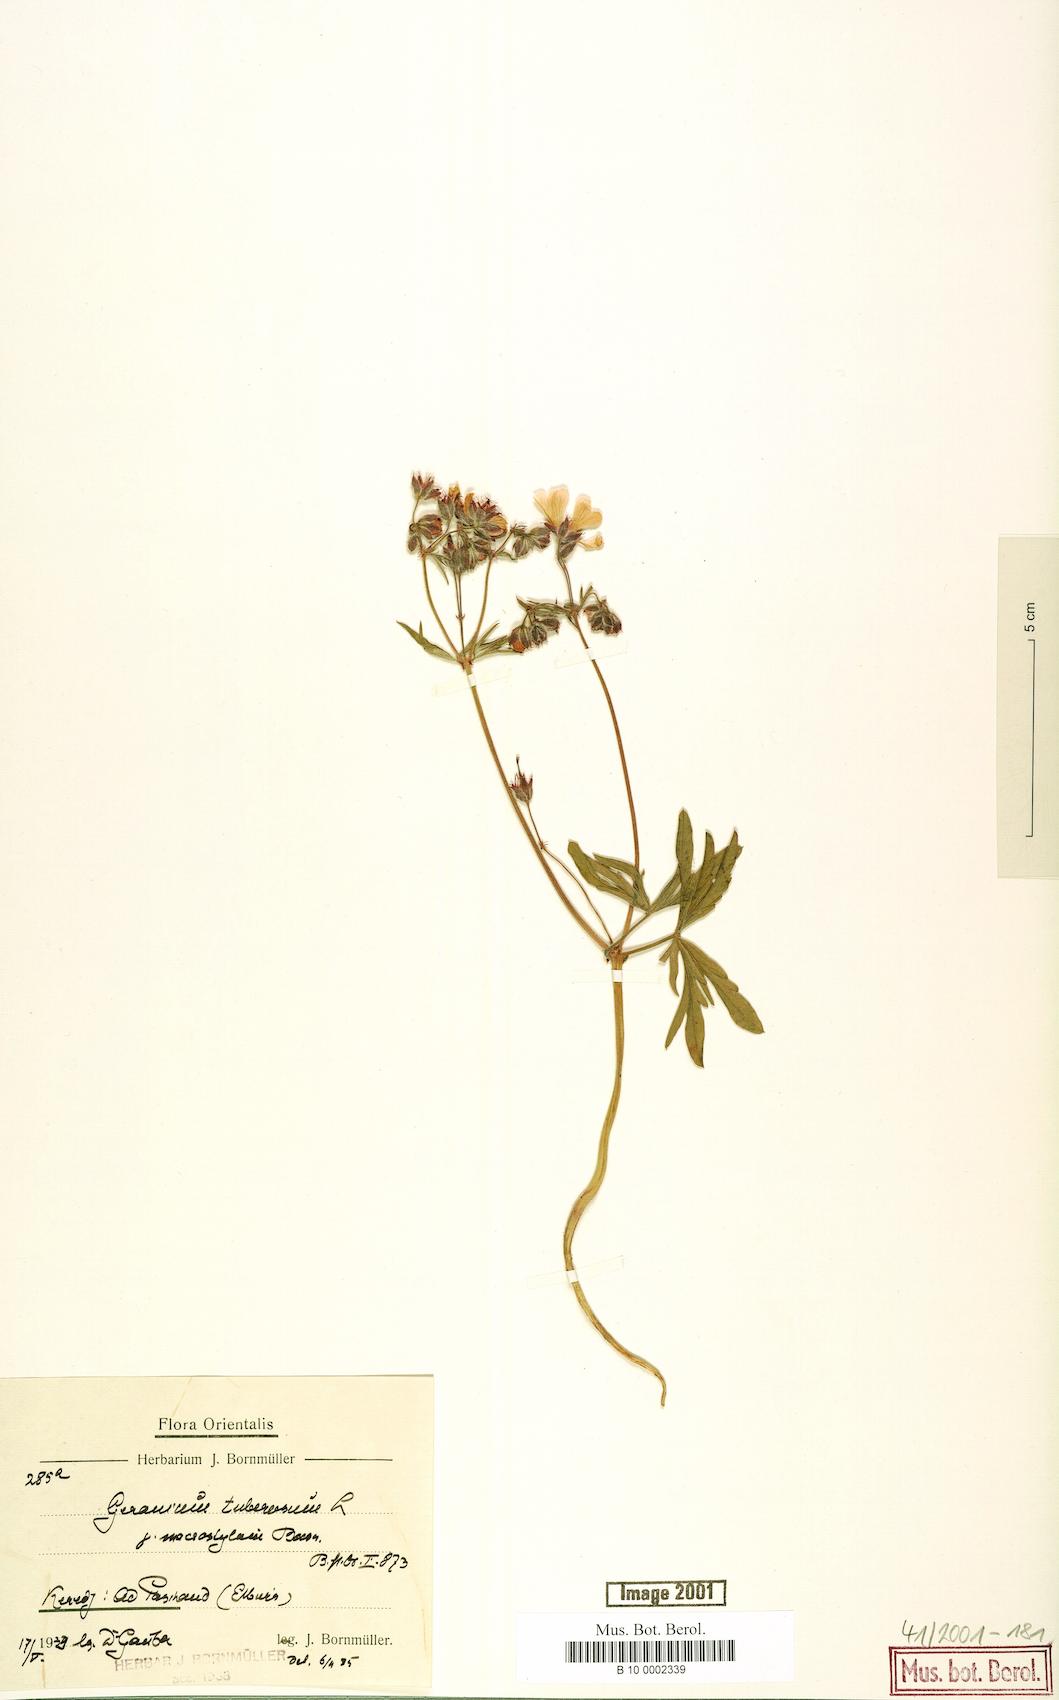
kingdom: Plantae
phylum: Tracheophyta
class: Magnoliopsida
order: Geraniales
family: Geraniaceae
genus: Geranium
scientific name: Geranium tuberosum
